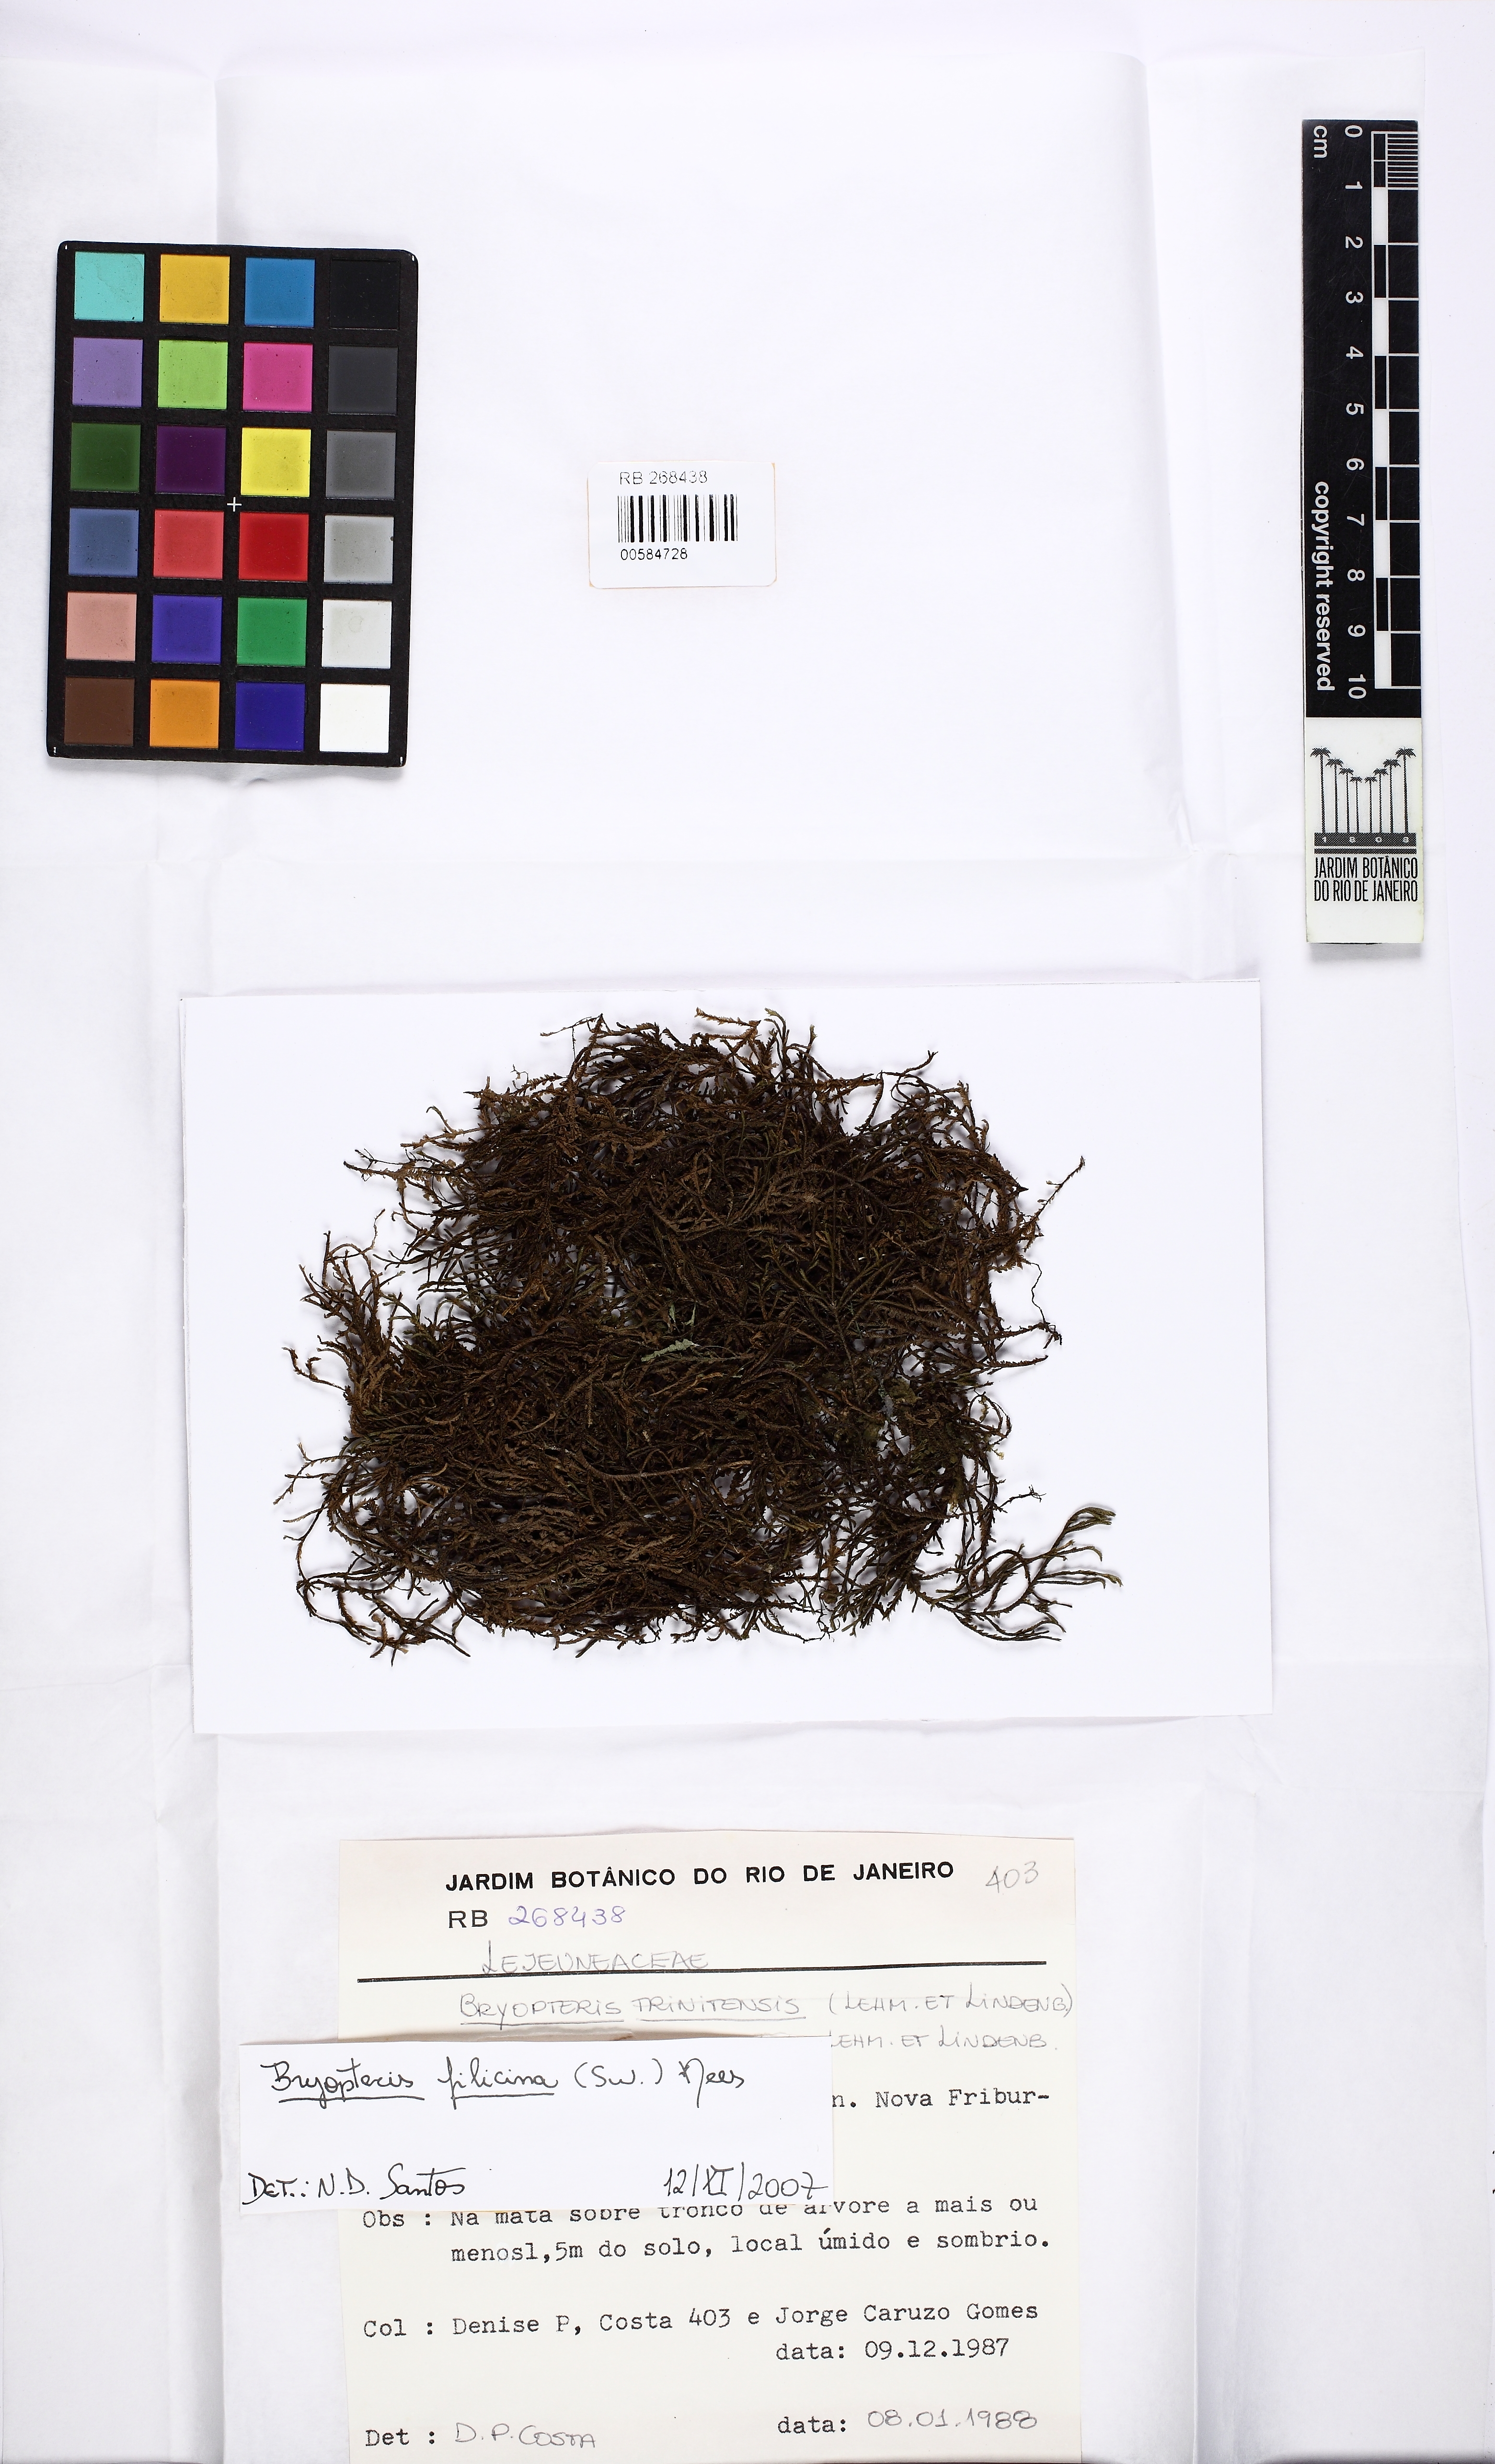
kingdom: Plantae
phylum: Marchantiophyta
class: Jungermanniopsida
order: Porellales
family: Lejeuneaceae
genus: Bryopteris
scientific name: Bryopteris filicina
